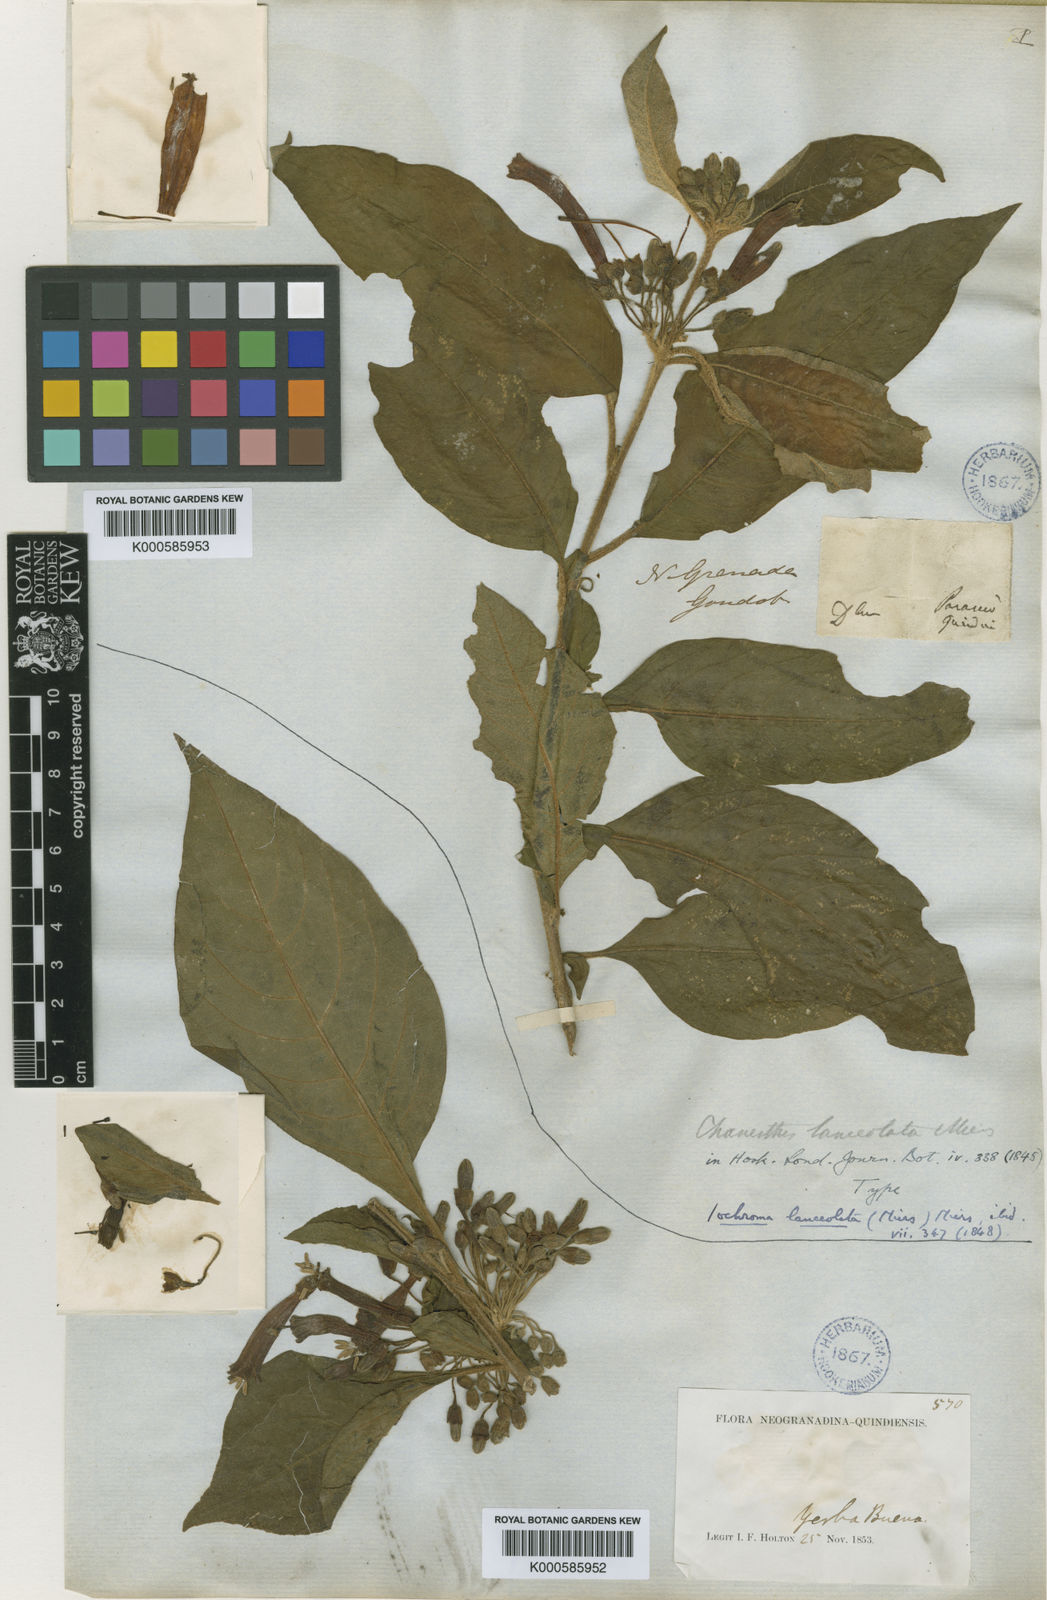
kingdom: Plantae
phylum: Tracheophyta
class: Magnoliopsida
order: Solanales
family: Solanaceae
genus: Iochroma
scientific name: Iochroma cyaneum
